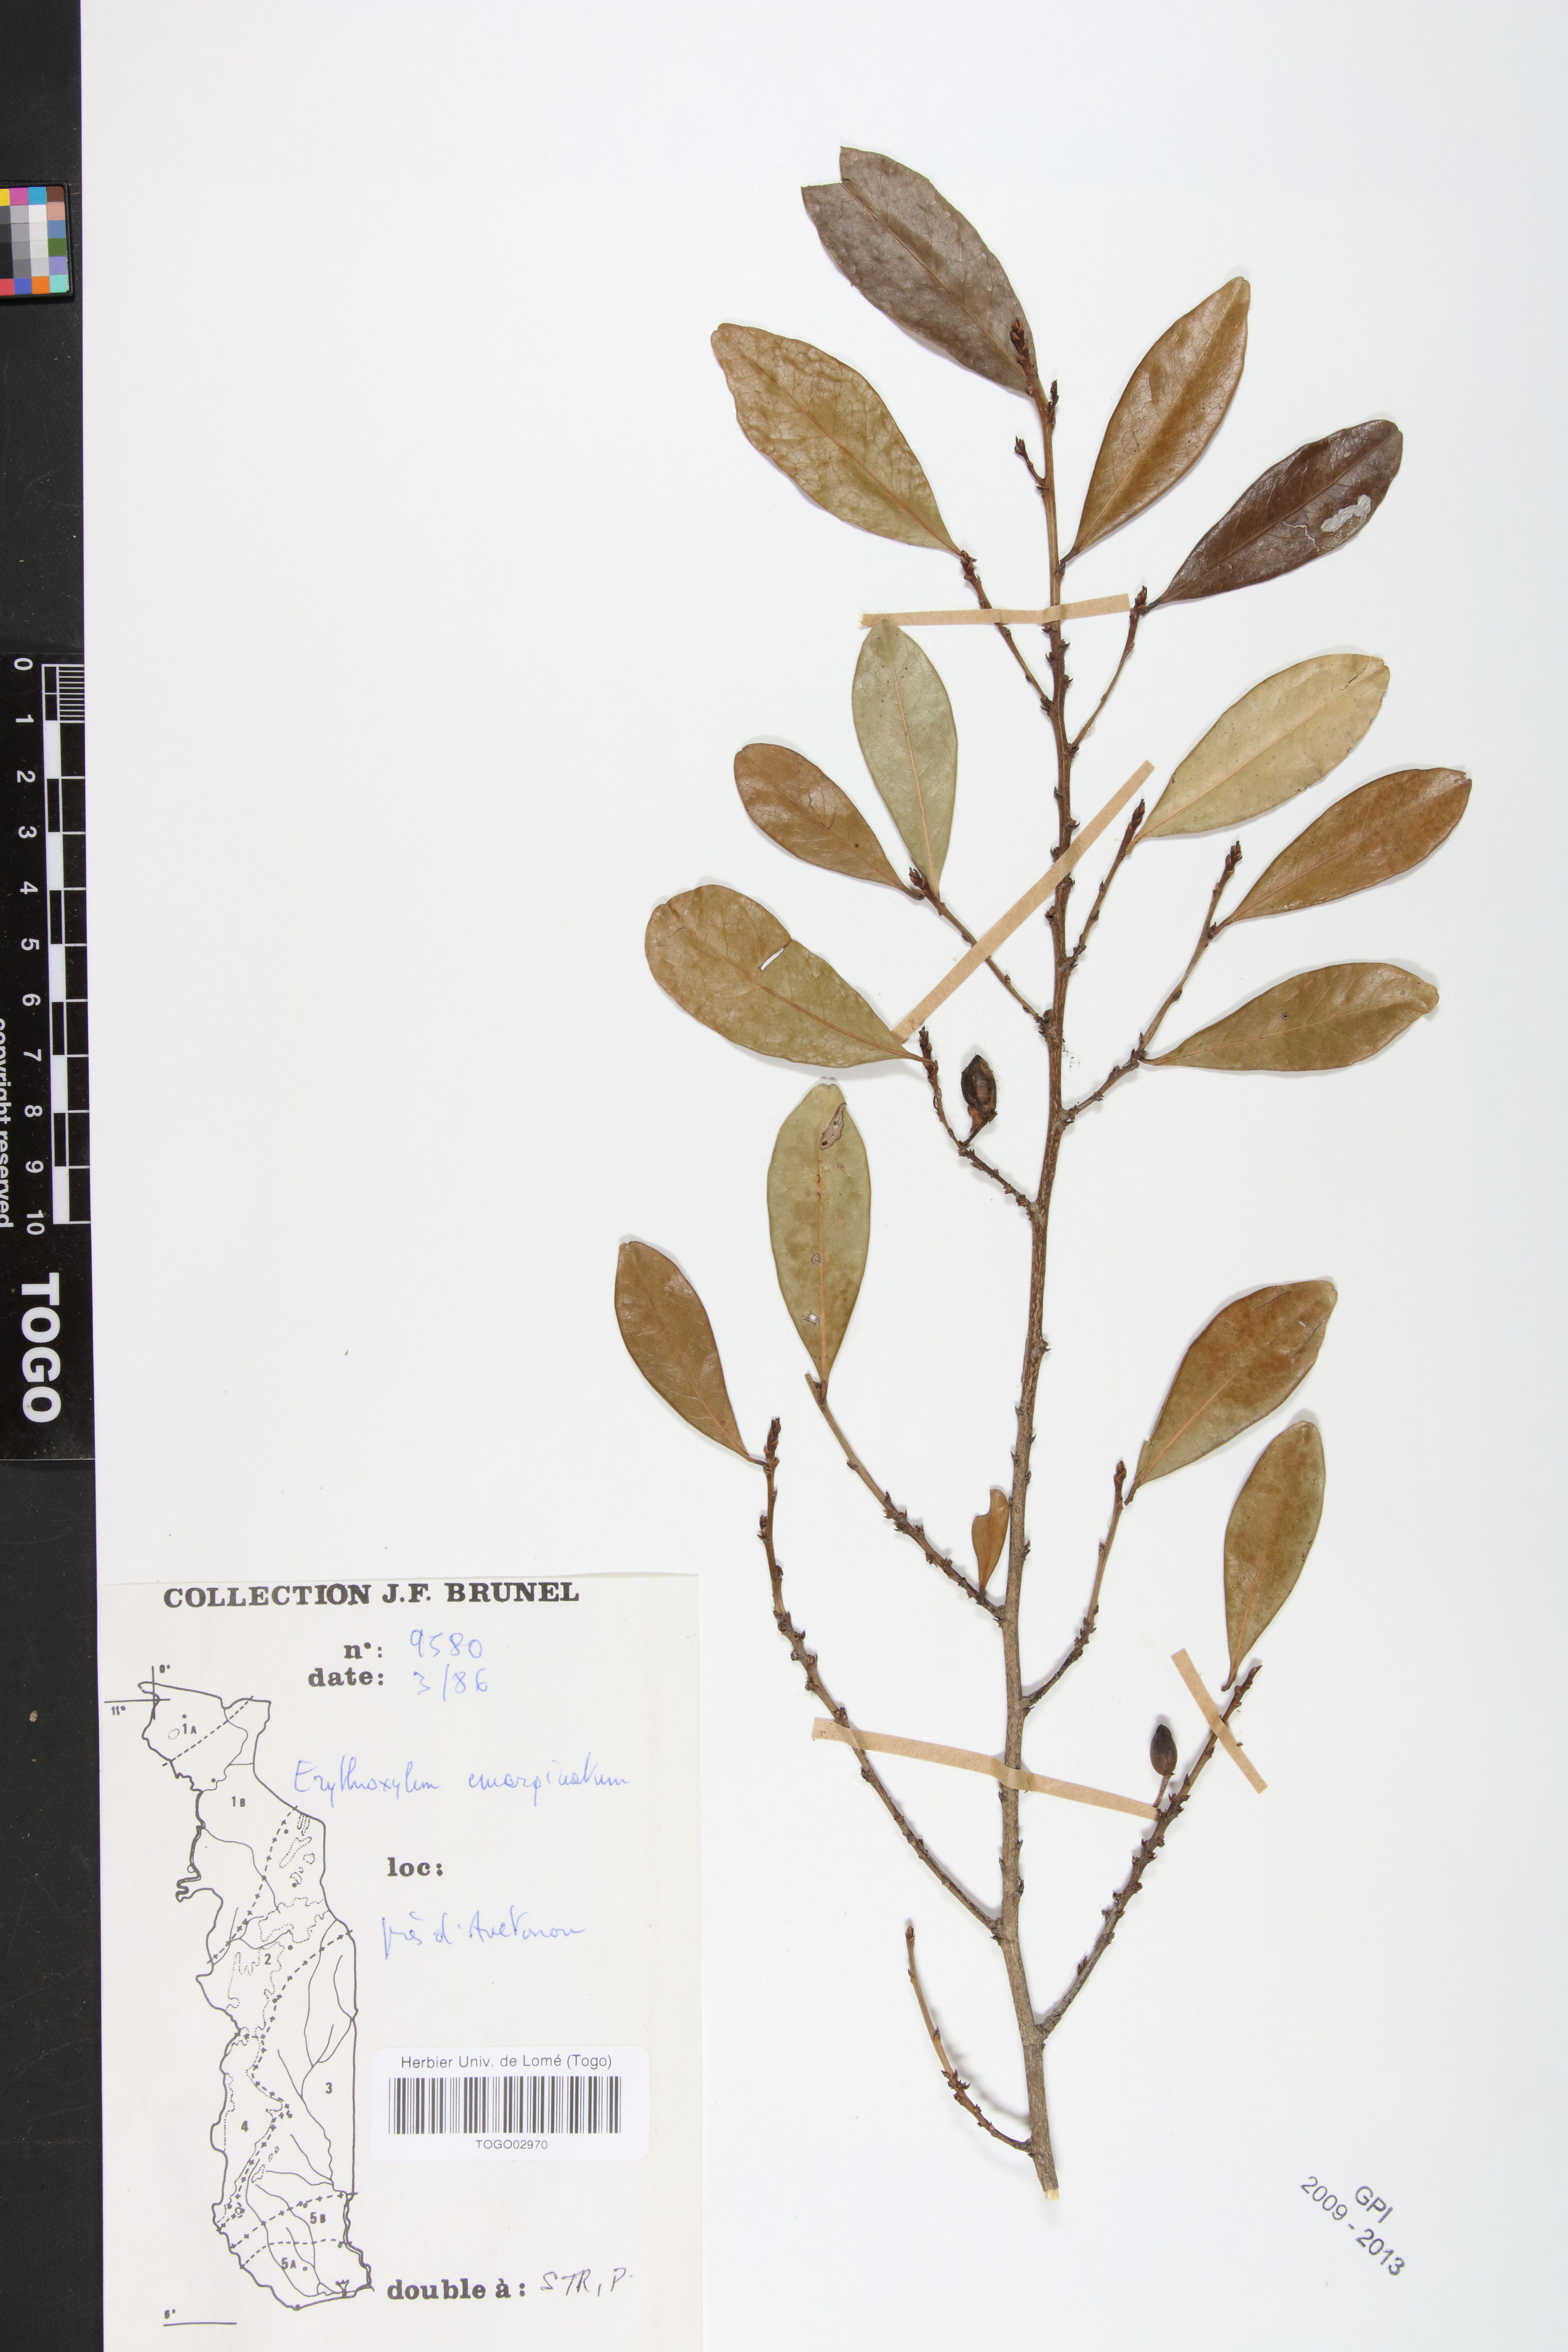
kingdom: Plantae
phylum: Tracheophyta
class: Magnoliopsida
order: Malpighiales
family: Erythroxylaceae
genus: Erythroxylum
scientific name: Erythroxylum emarginatum
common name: African coca-tree
